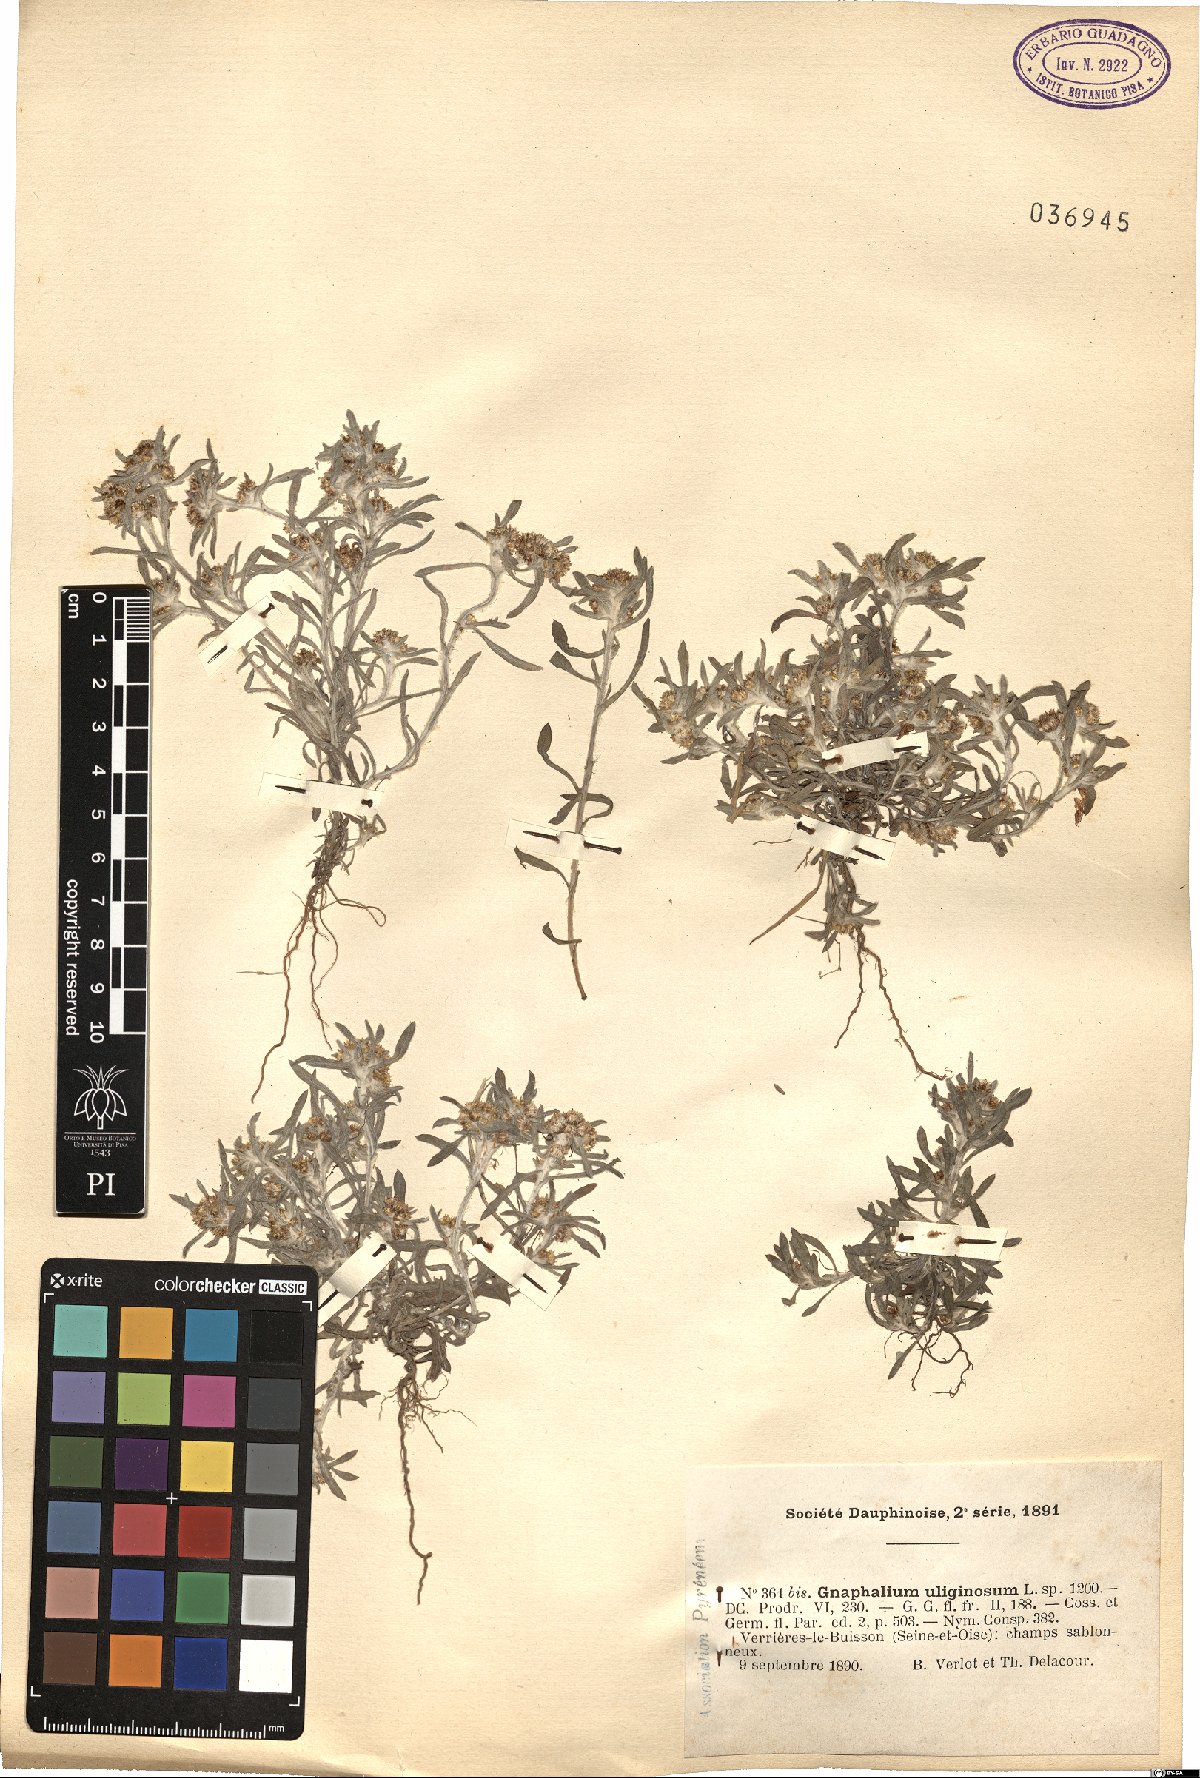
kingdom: Plantae
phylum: Tracheophyta
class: Magnoliopsida
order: Asterales
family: Asteraceae
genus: Gnaphalium
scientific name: Gnaphalium uliginosum
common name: Marsh cudweed
